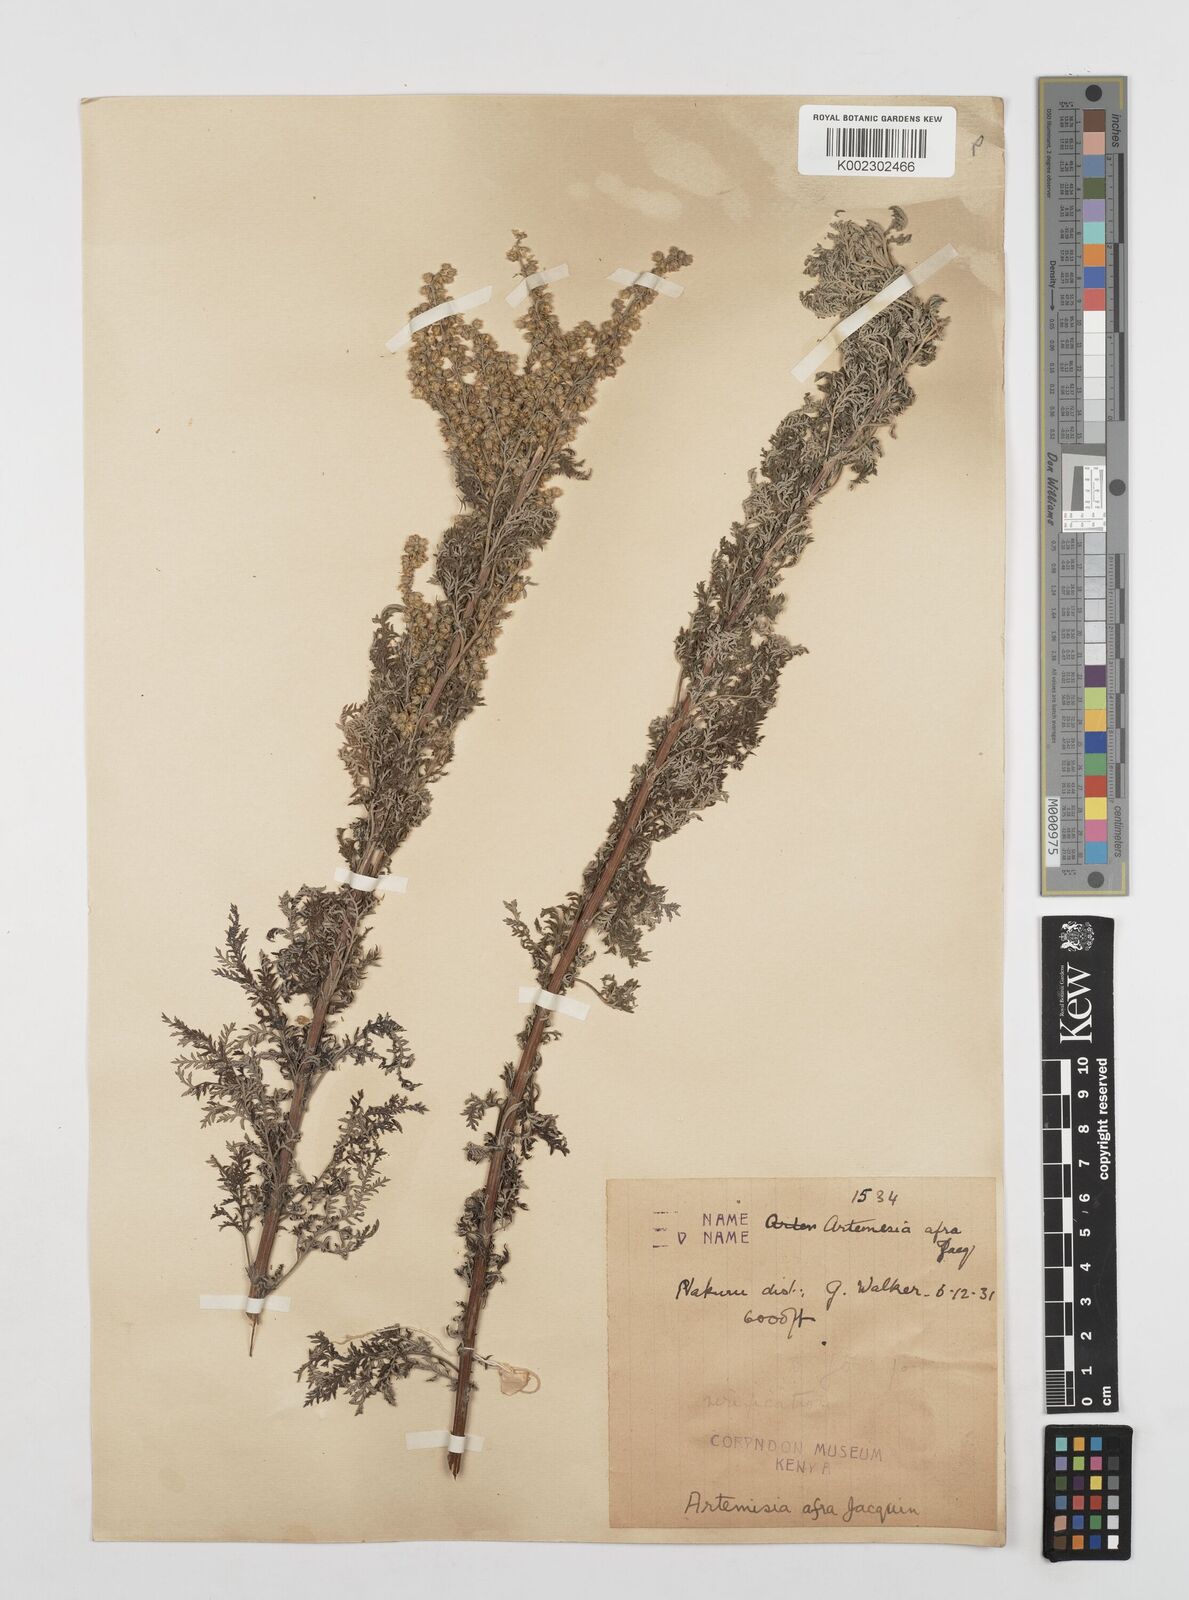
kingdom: Plantae
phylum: Tracheophyta
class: Magnoliopsida
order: Asterales
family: Asteraceae
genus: Artemisia
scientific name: Artemisia afra
